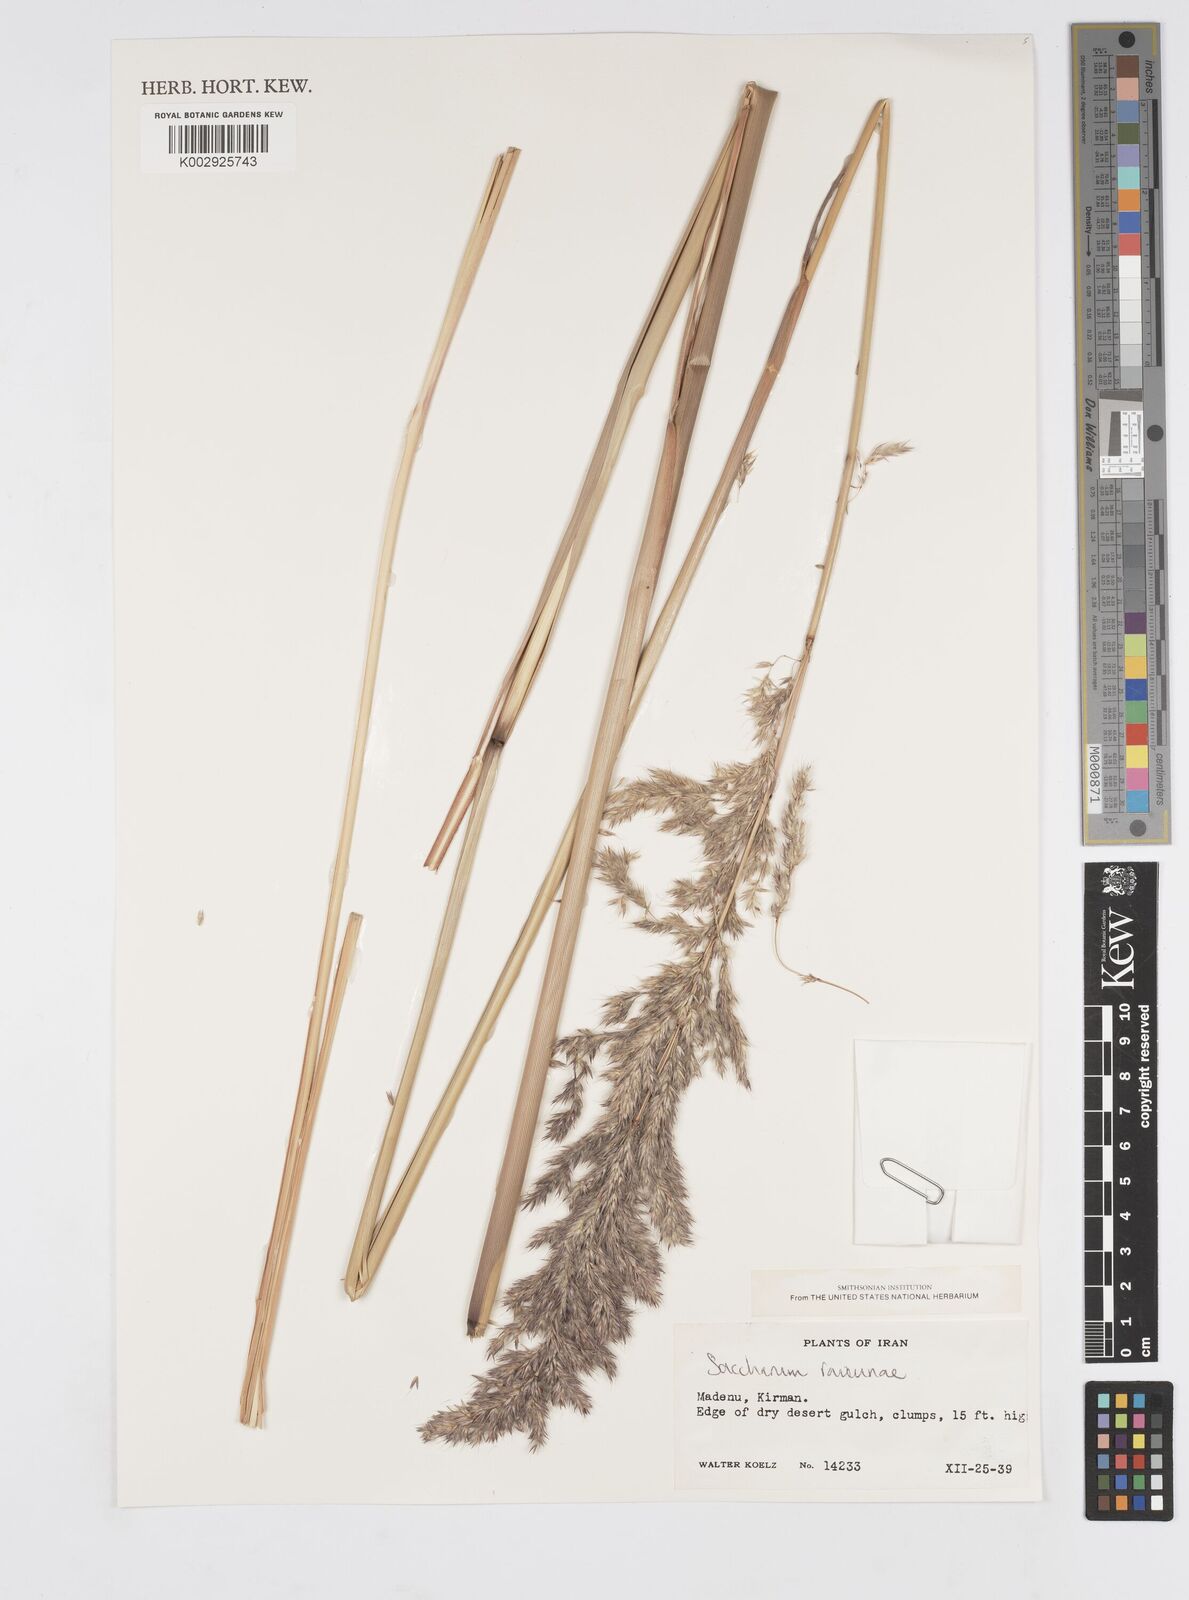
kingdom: Plantae
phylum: Tracheophyta
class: Liliopsida
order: Poales
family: Poaceae
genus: Tripidium
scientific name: Tripidium ravennae
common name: Ravenna grass
